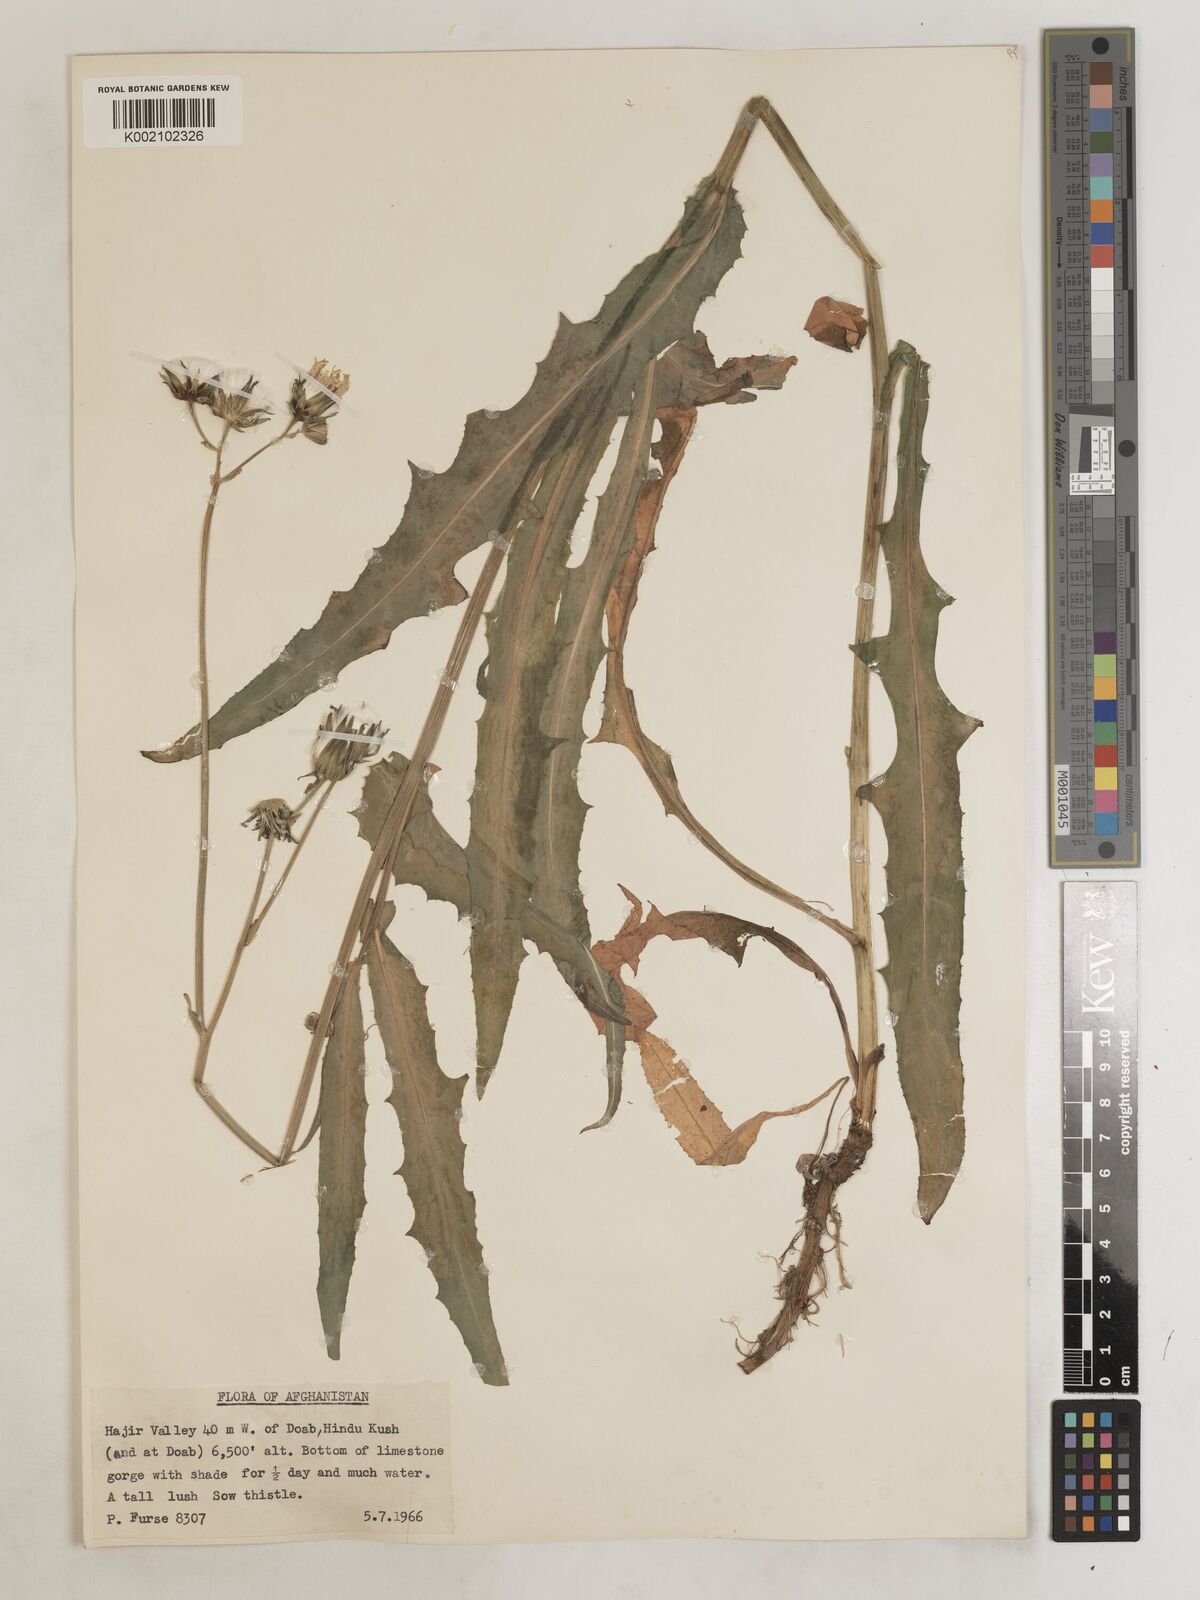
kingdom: Plantae
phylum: Tracheophyta
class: Magnoliopsida
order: Asterales
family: Asteraceae
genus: Sonchus
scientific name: Sonchus maritimus
